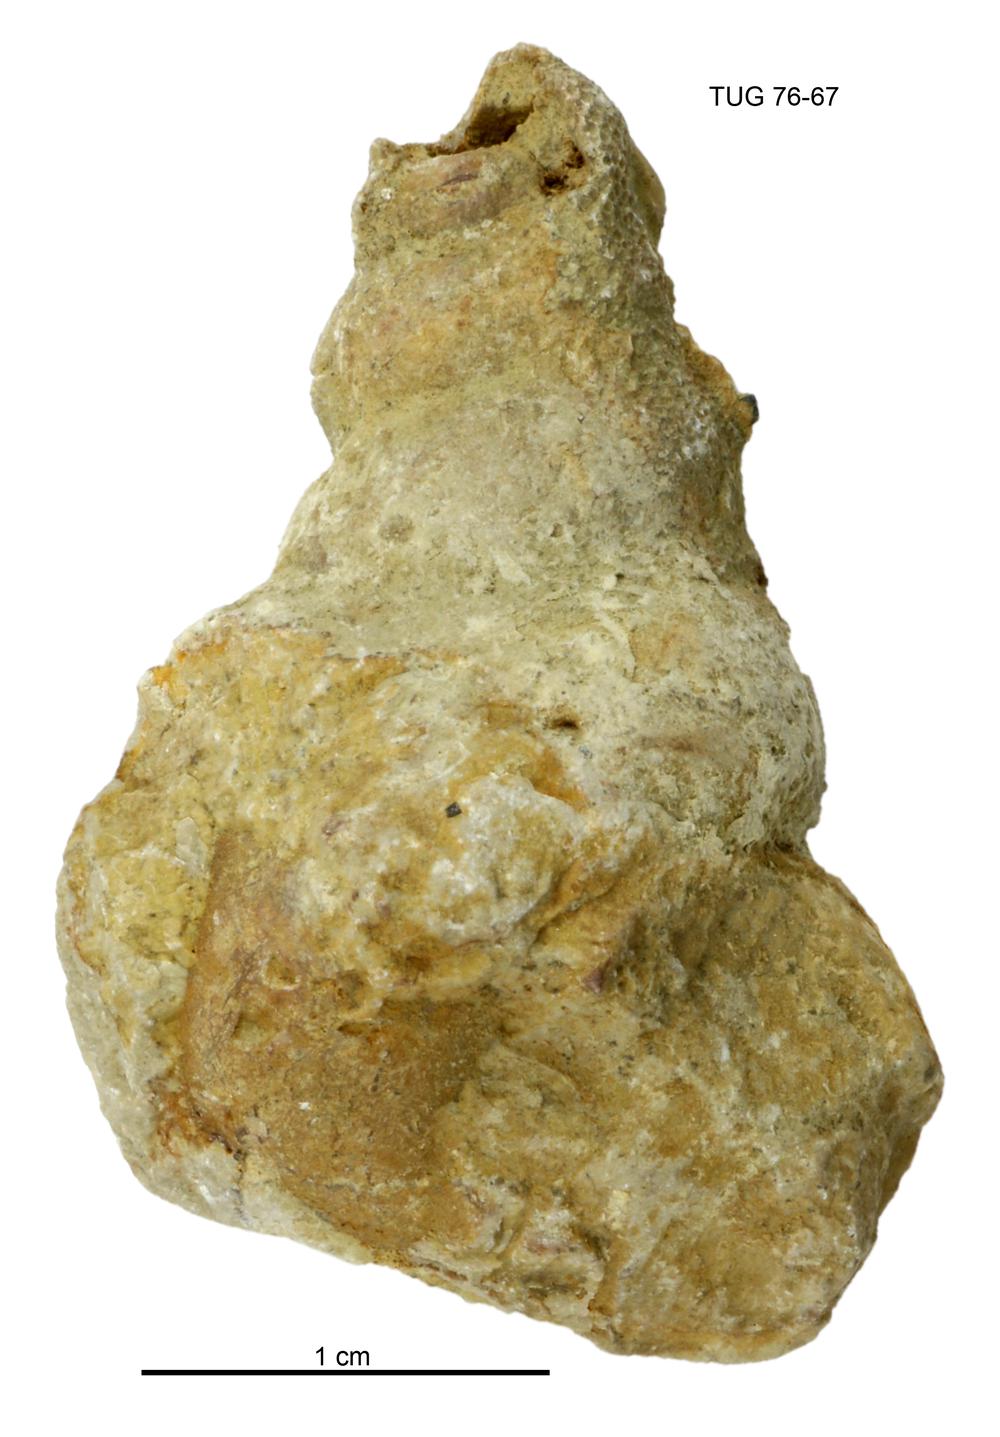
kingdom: Animalia
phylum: Mollusca
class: Gastropoda
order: Pleurotomariida
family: Murchisoniidae
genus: Murchisonia
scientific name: Murchisonia insignis
